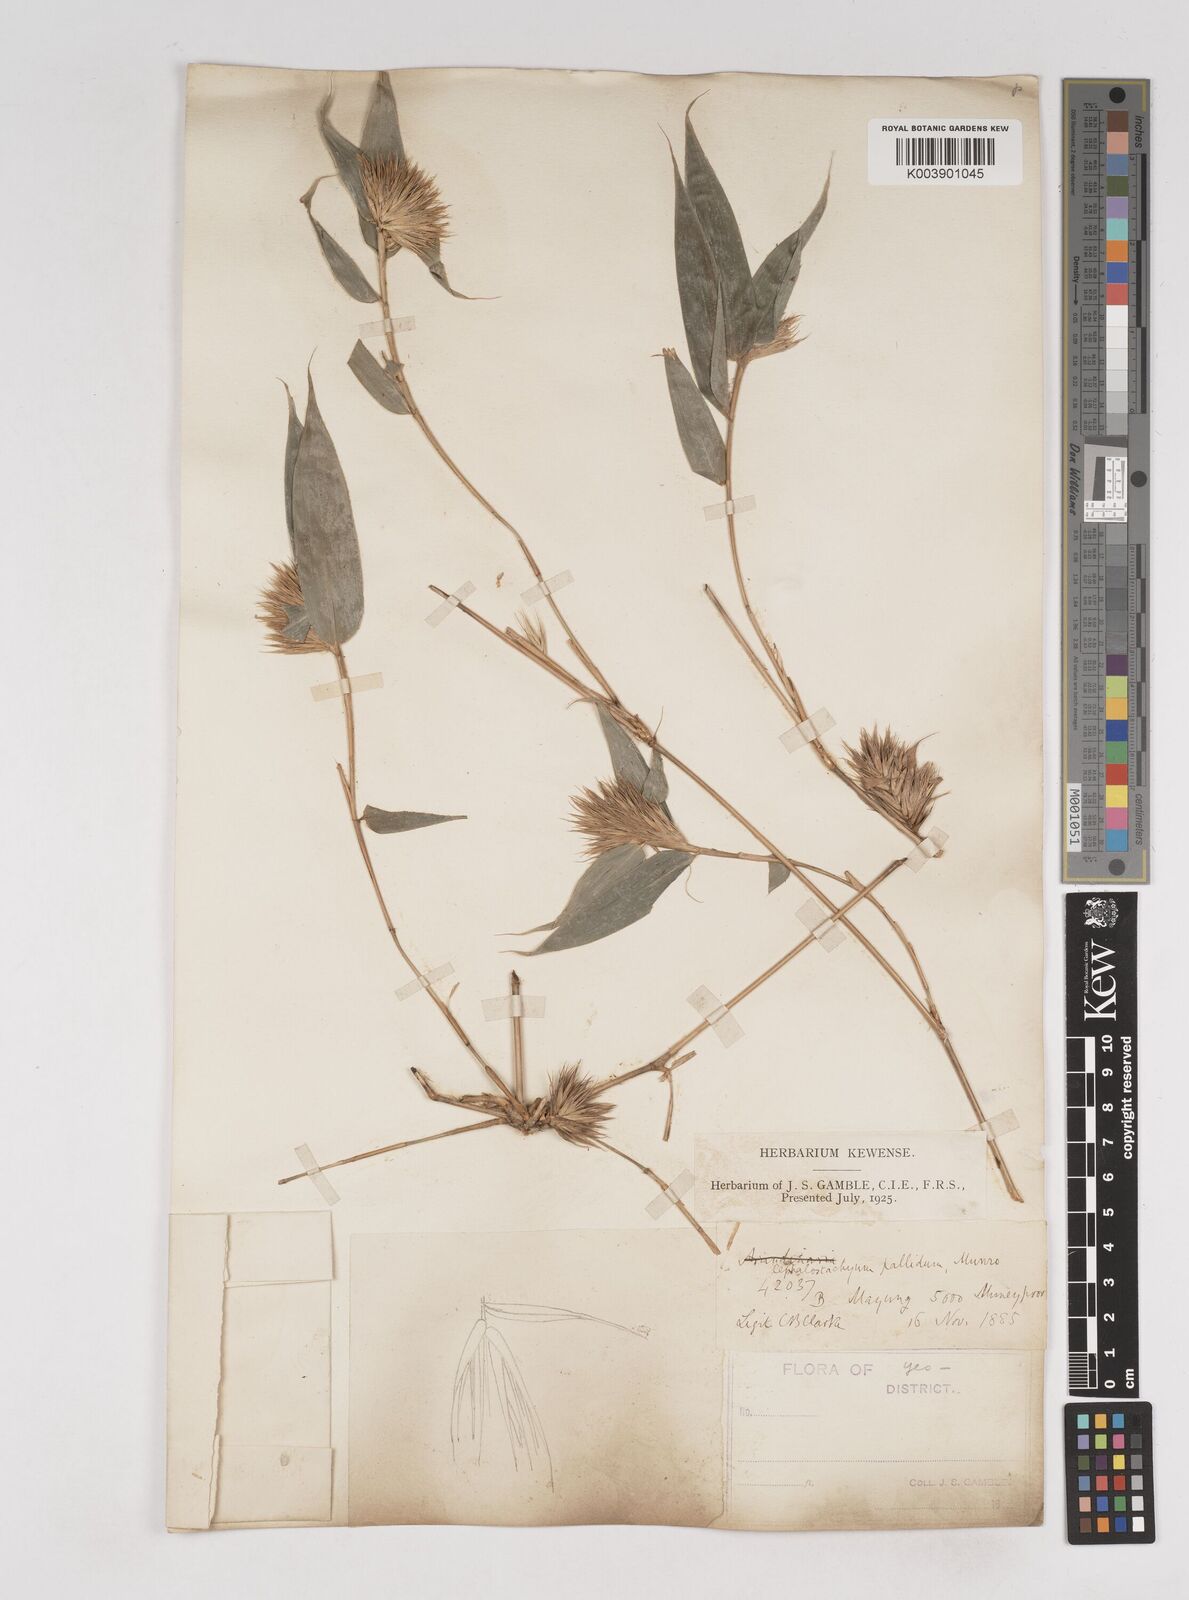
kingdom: Plantae
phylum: Tracheophyta
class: Liliopsida
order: Poales
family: Poaceae
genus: Cephalostachyum
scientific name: Cephalostachyum pallidum
